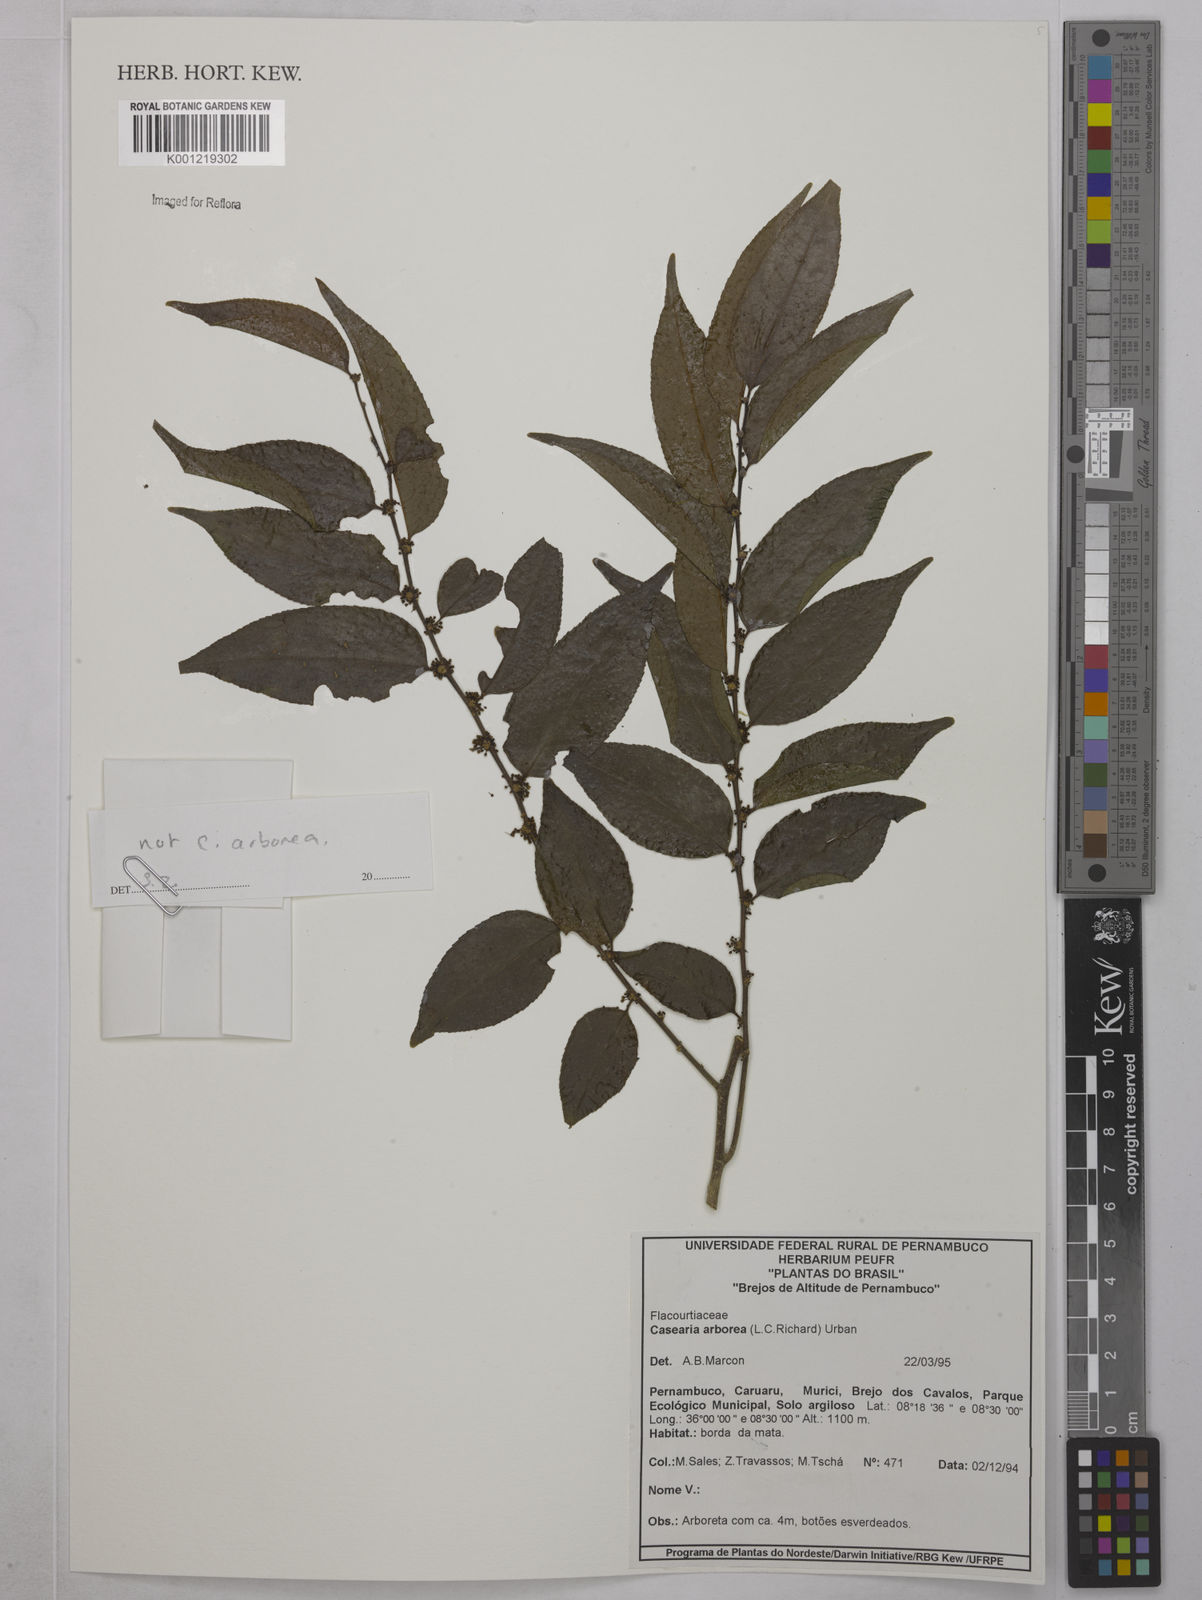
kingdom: Plantae
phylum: Tracheophyta
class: Magnoliopsida
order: Malpighiales
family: Salicaceae
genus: Casearia
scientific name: Casearia
